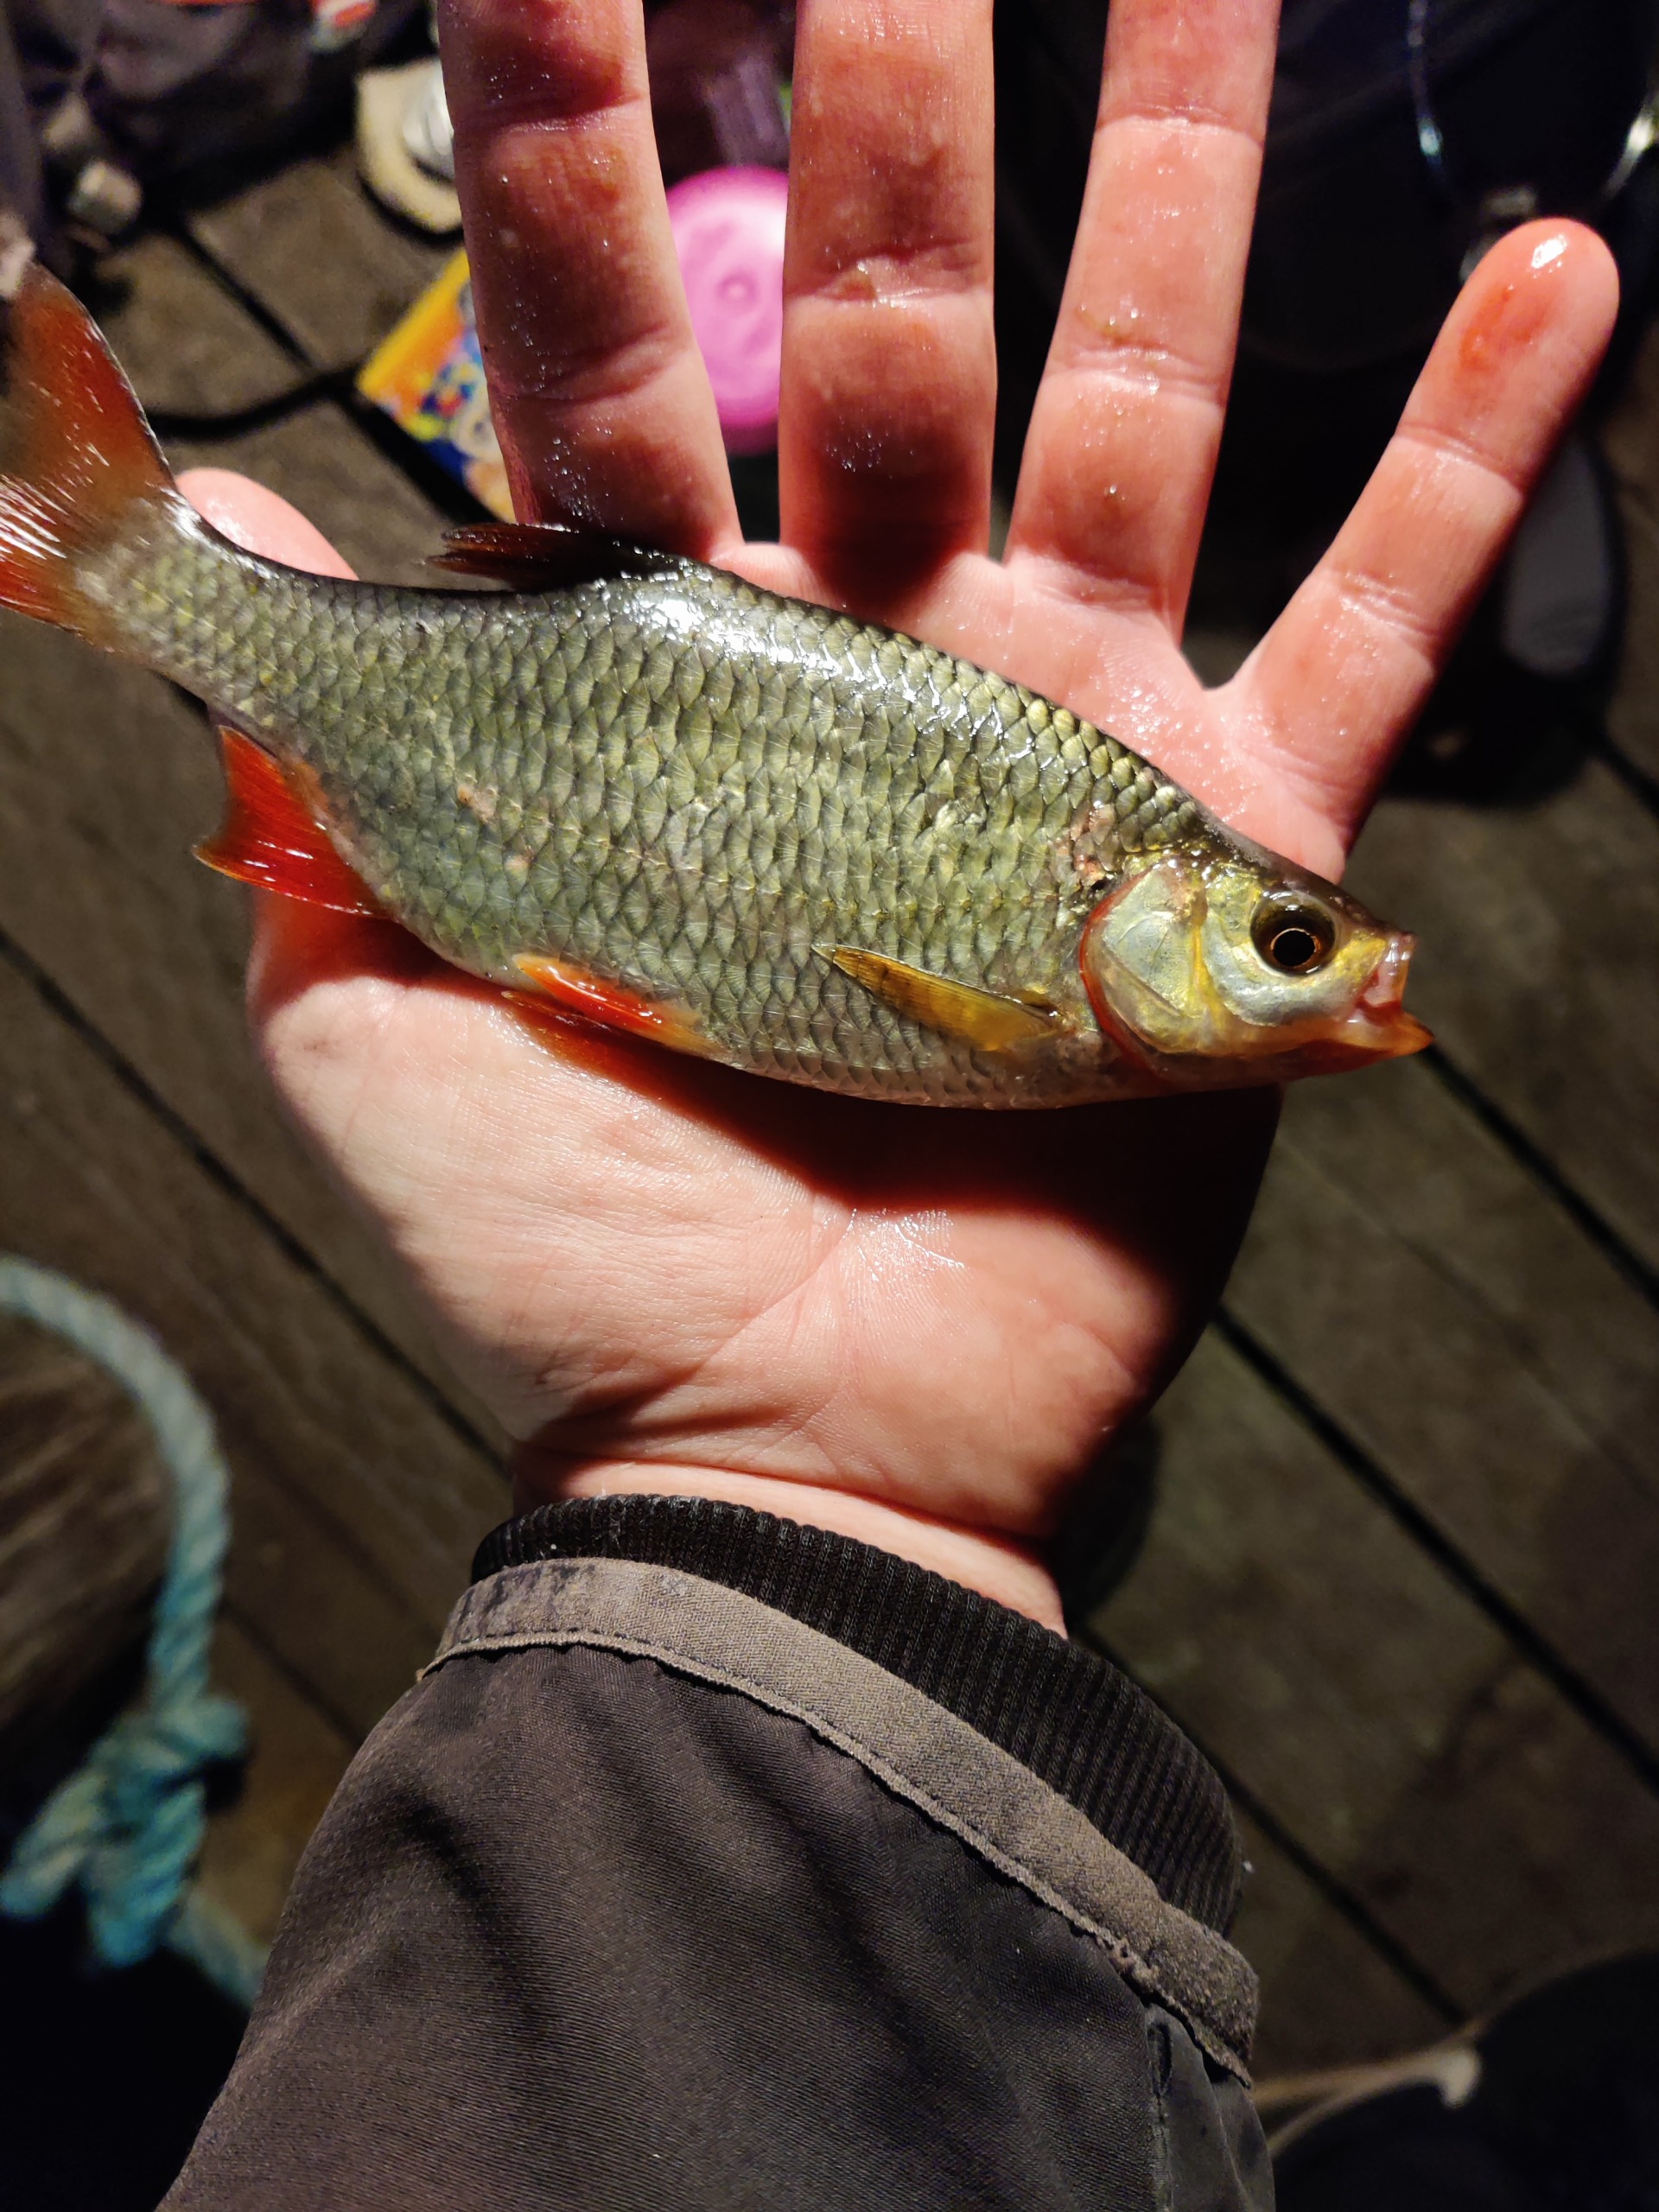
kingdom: Animalia
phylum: Chordata
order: Cypriniformes
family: Cyprinidae
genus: Scardinius
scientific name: Scardinius erythrophthalmus
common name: Rudskalle
